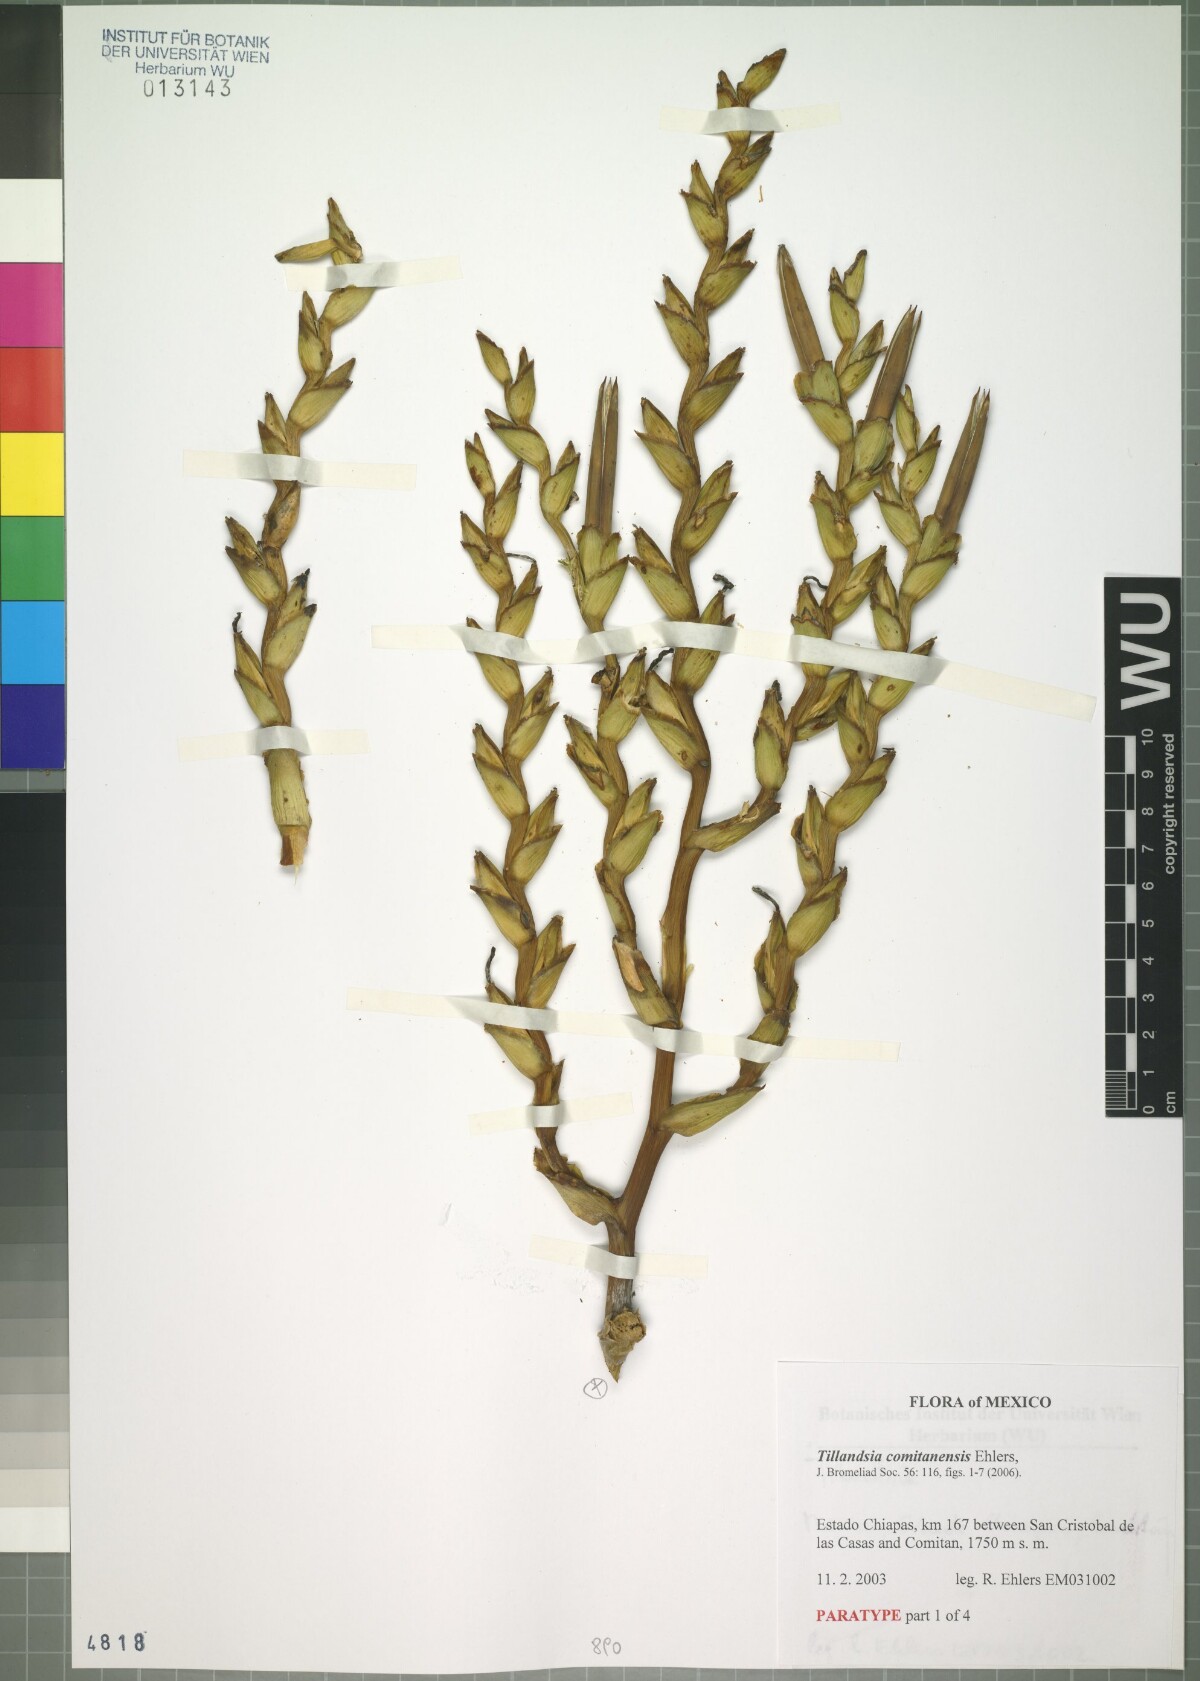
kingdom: Plantae
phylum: Tracheophyta
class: Liliopsida
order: Poales
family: Bromeliaceae
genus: Tillandsia
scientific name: Tillandsia comitanensis
